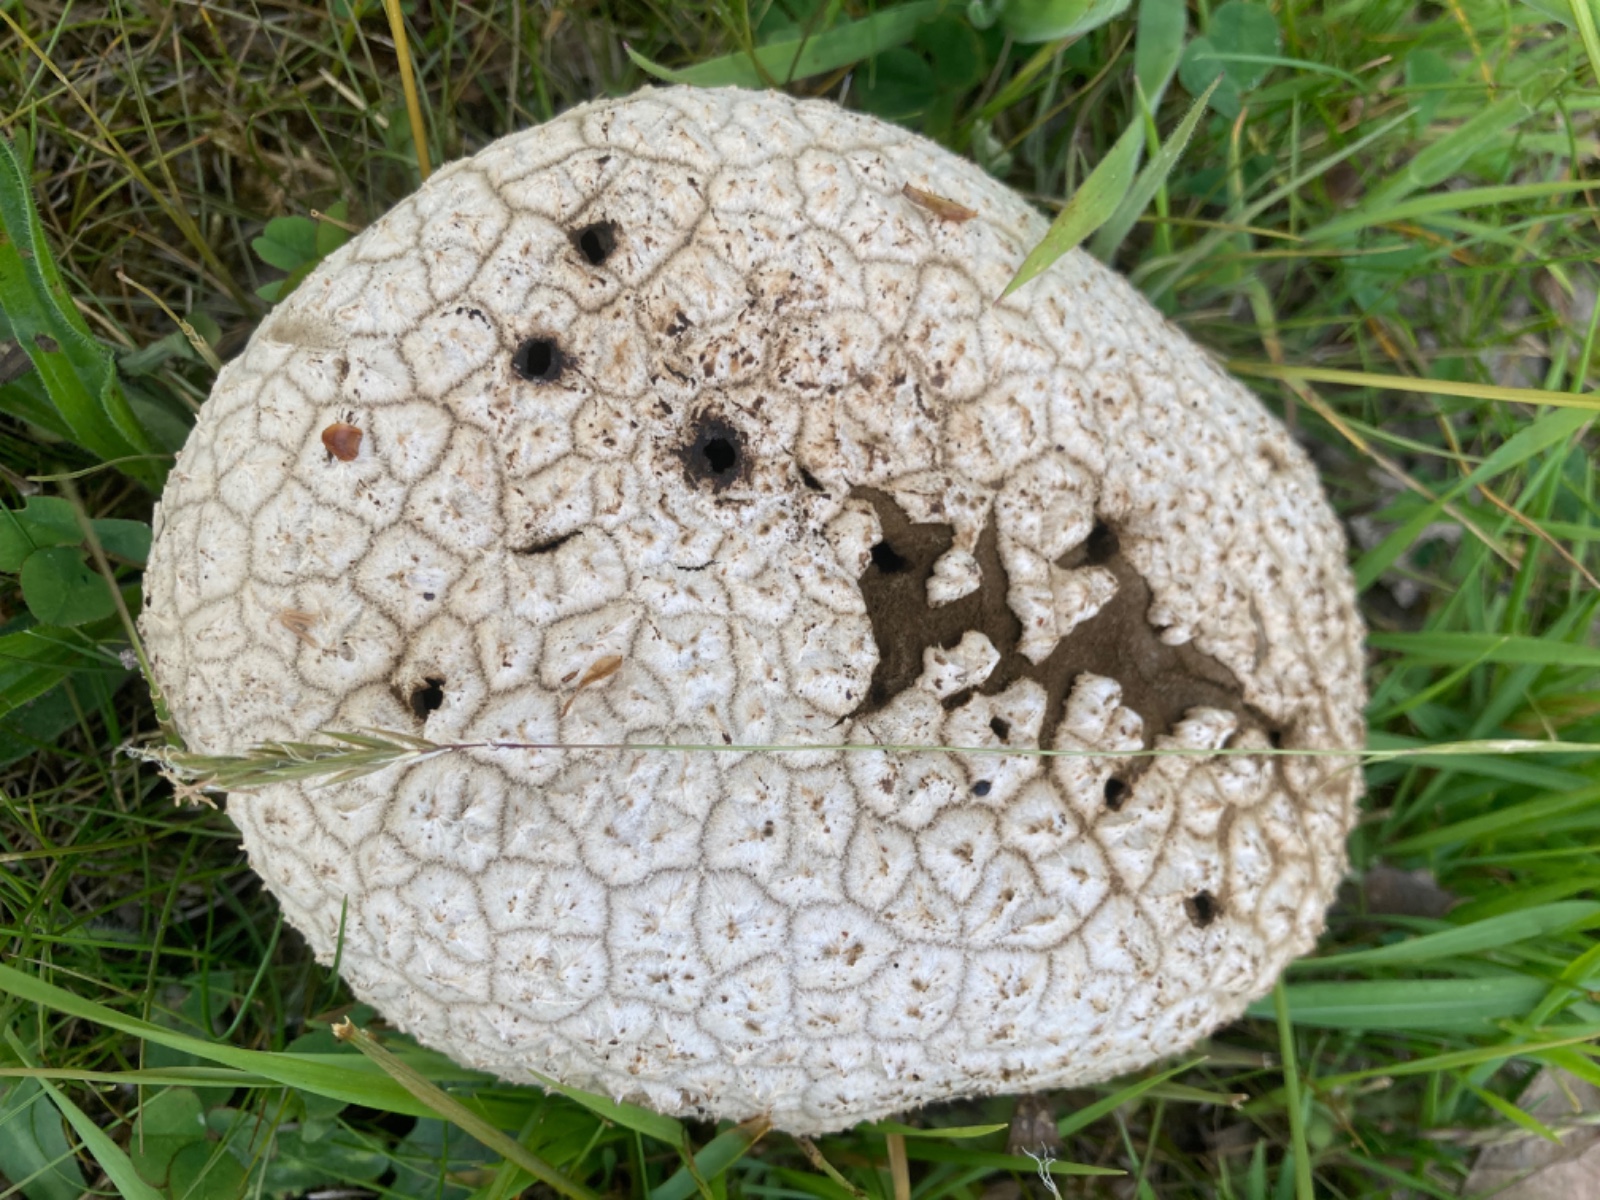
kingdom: Fungi
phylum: Basidiomycota
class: Agaricomycetes
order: Agaricales
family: Lycoperdaceae
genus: Bovistella
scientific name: Bovistella utriformis
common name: skællet støvbold
